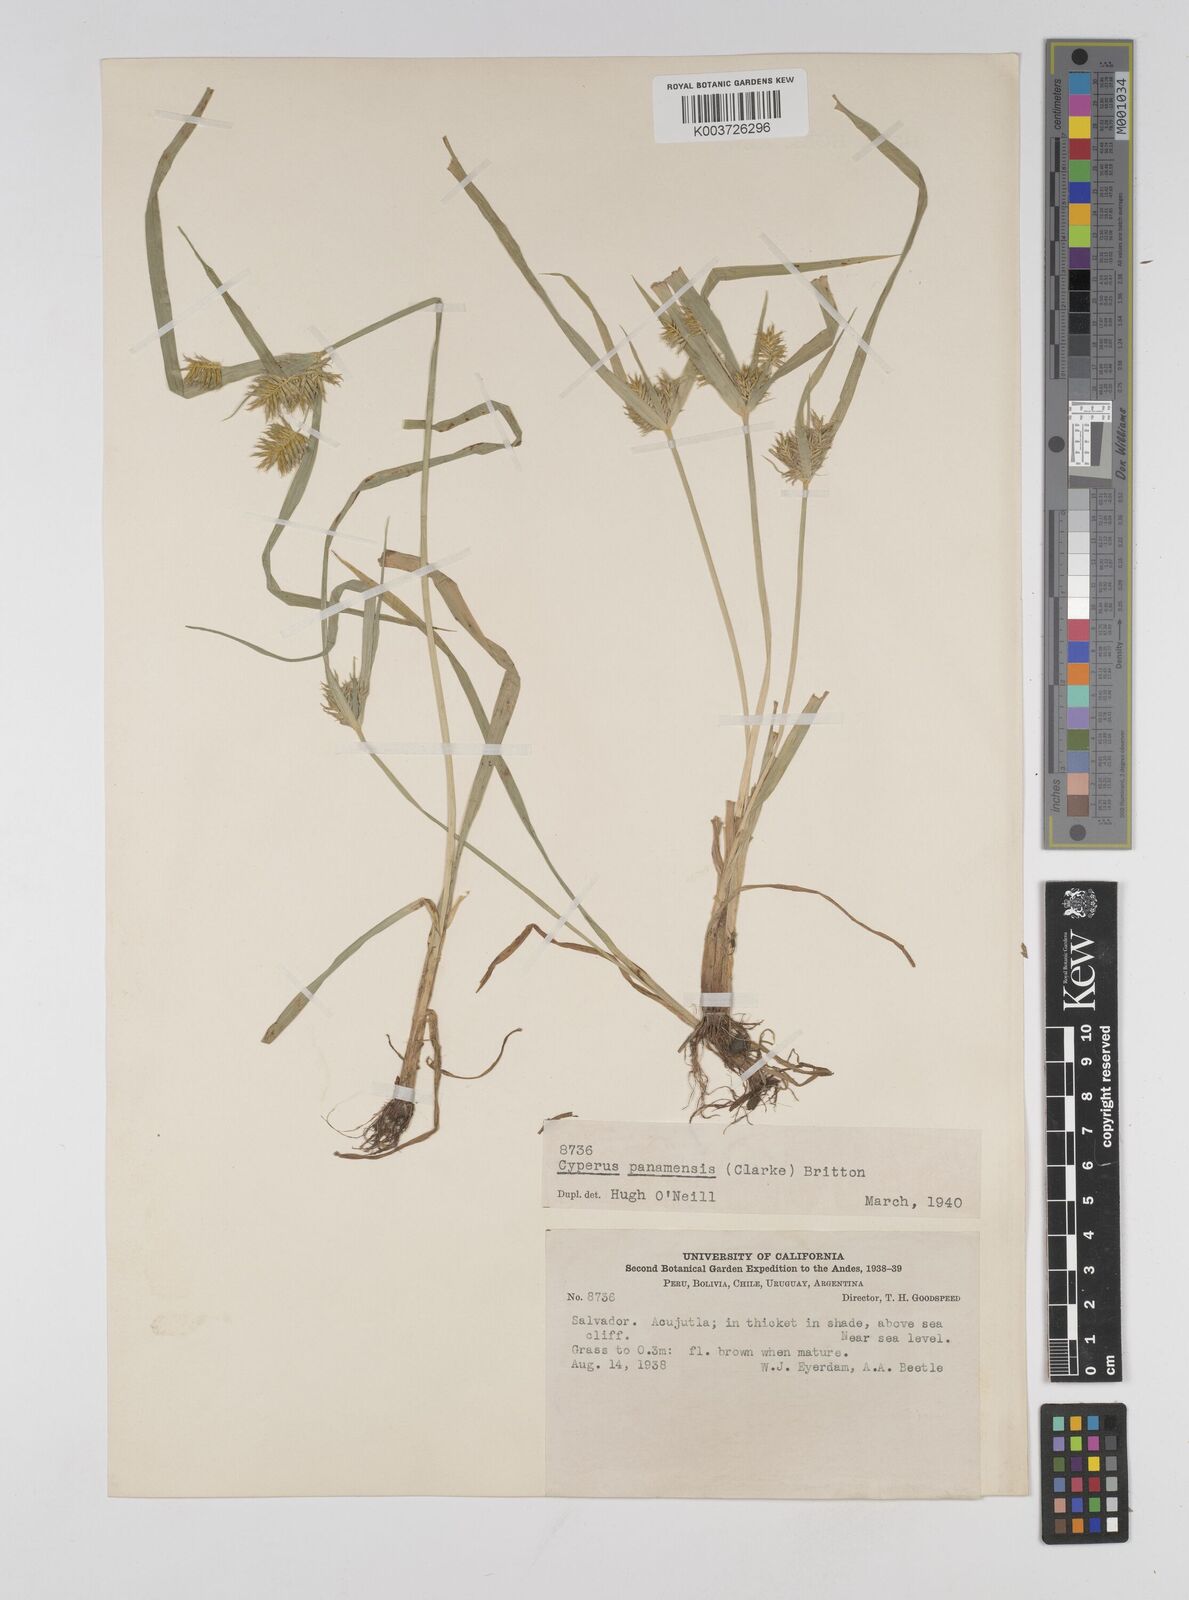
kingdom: Plantae
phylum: Tracheophyta
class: Liliopsida
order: Poales
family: Cyperaceae
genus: Cyperus
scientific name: Cyperus panamensis
